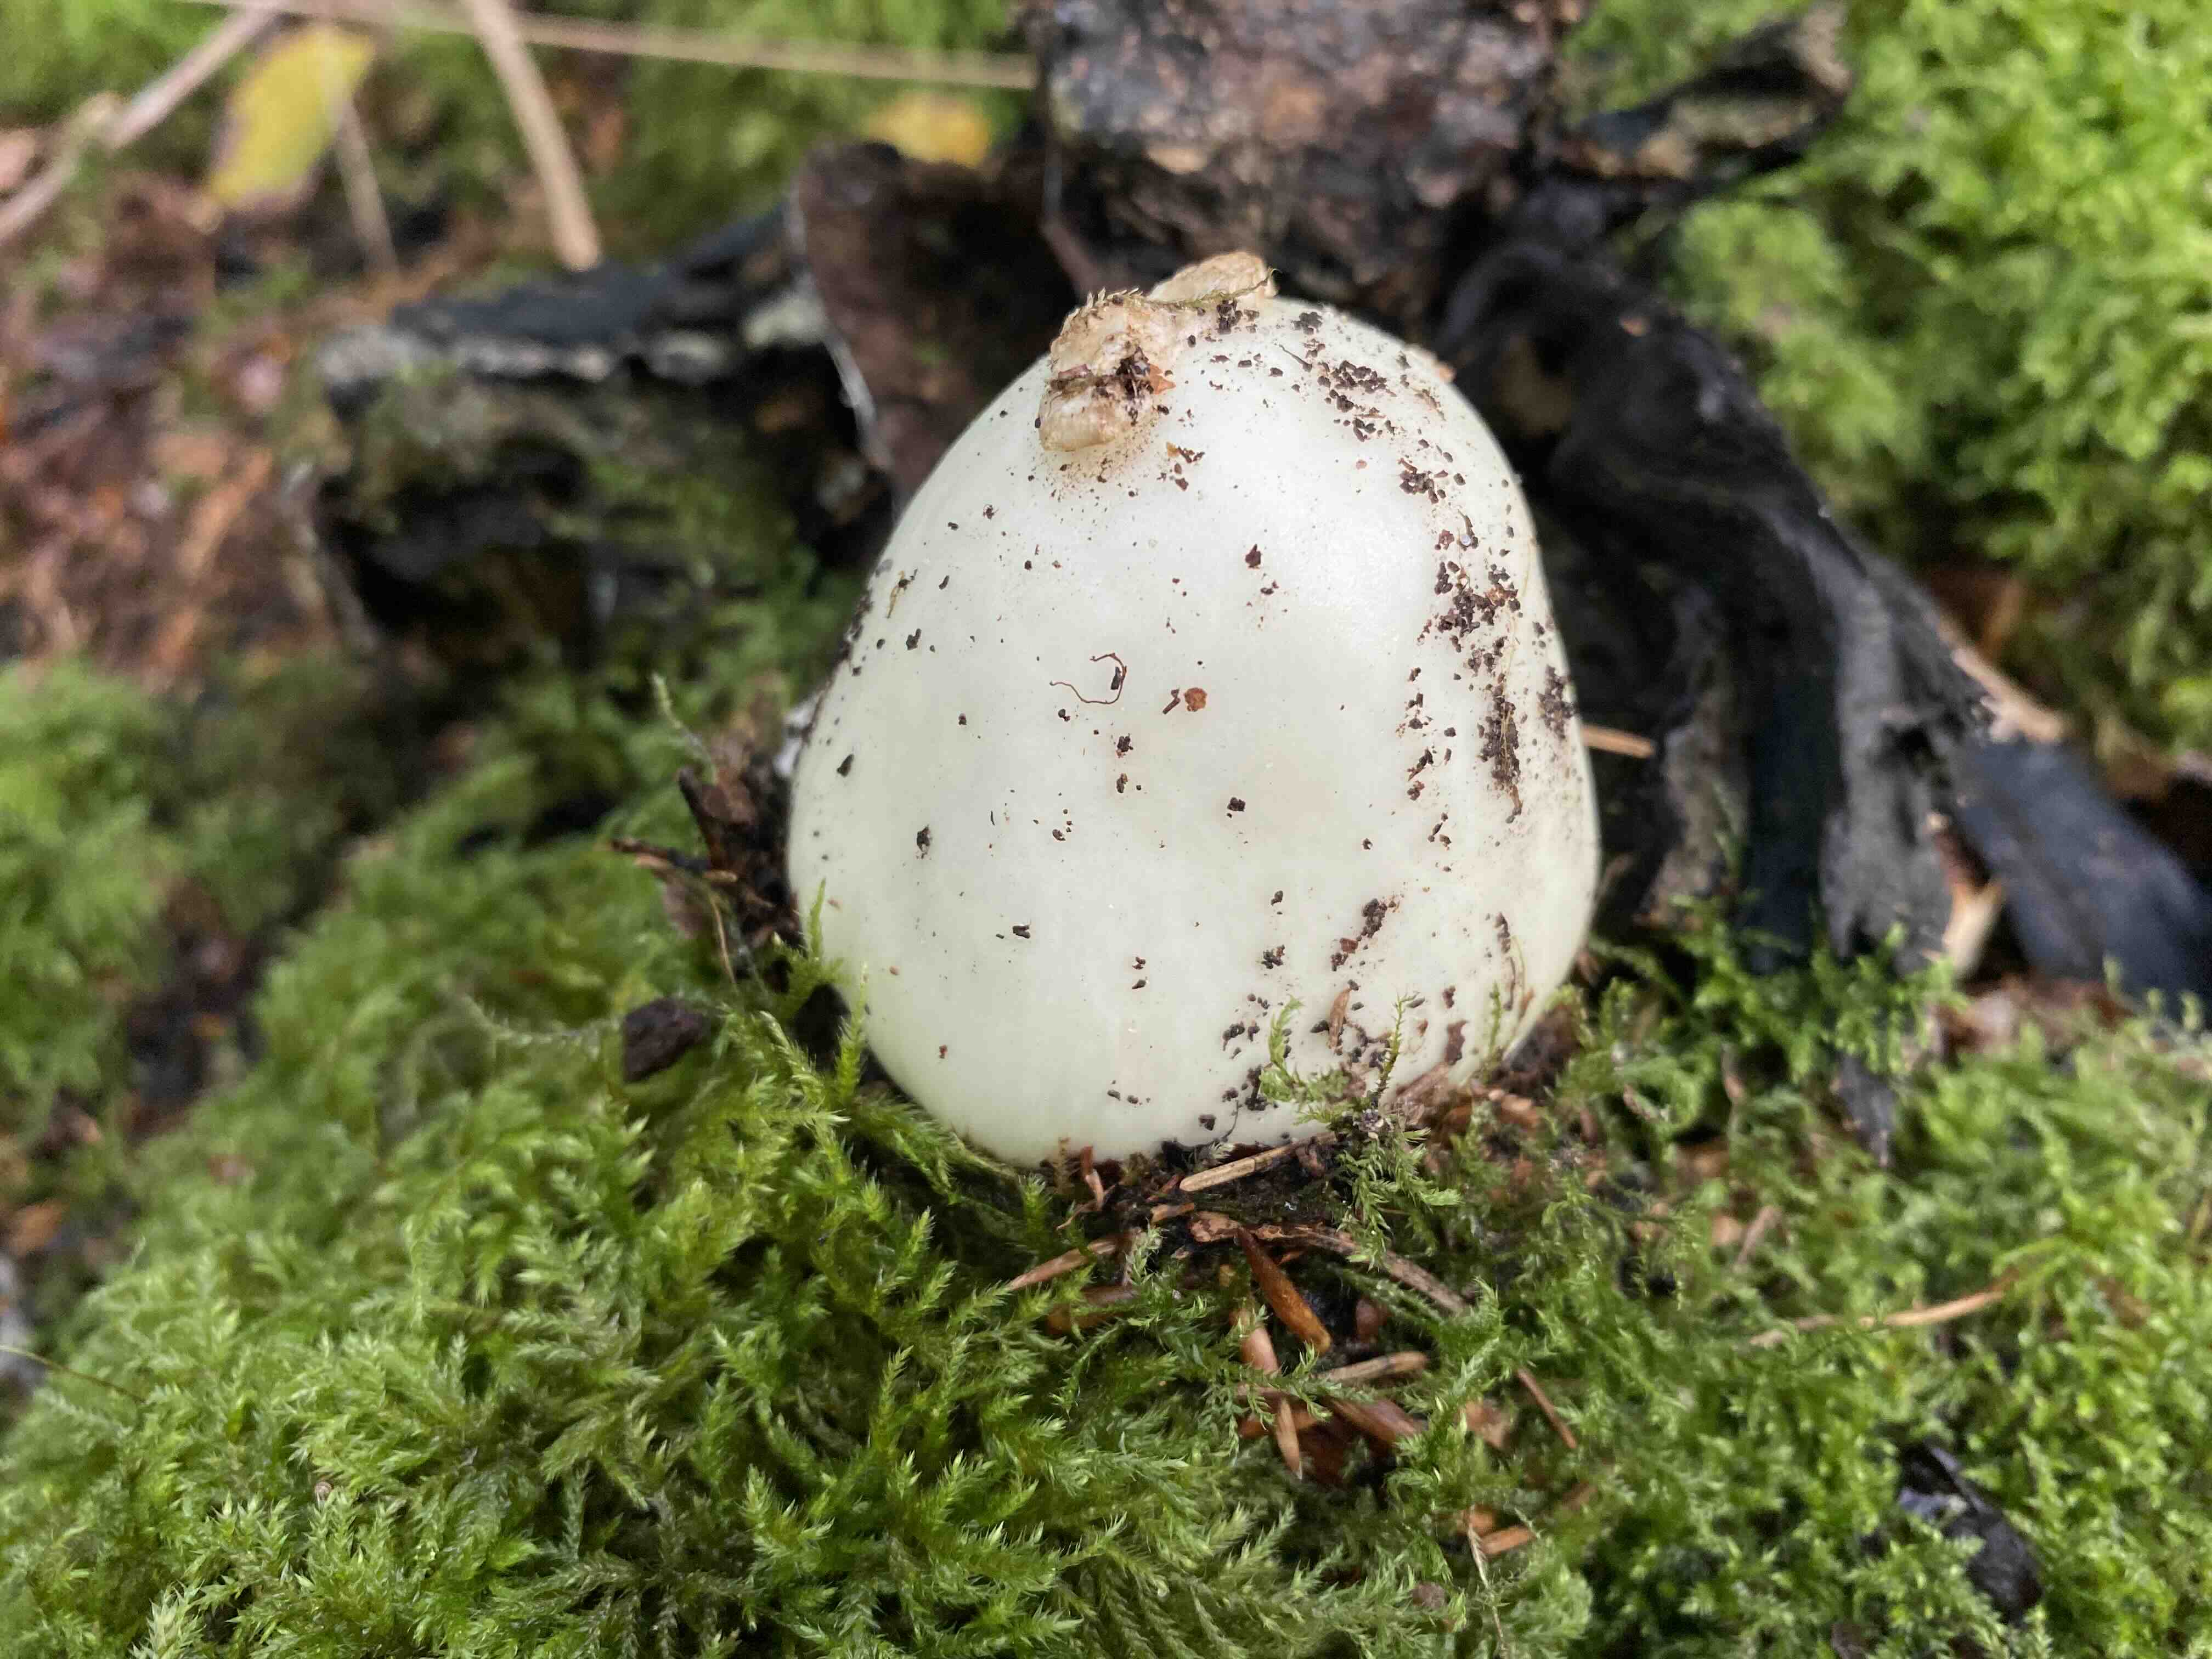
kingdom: Fungi
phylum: Basidiomycota
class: Agaricomycetes
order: Agaricales
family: Amanitaceae
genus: Amanita
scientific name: Amanita citrina
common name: kugleknoldet fluesvamp
